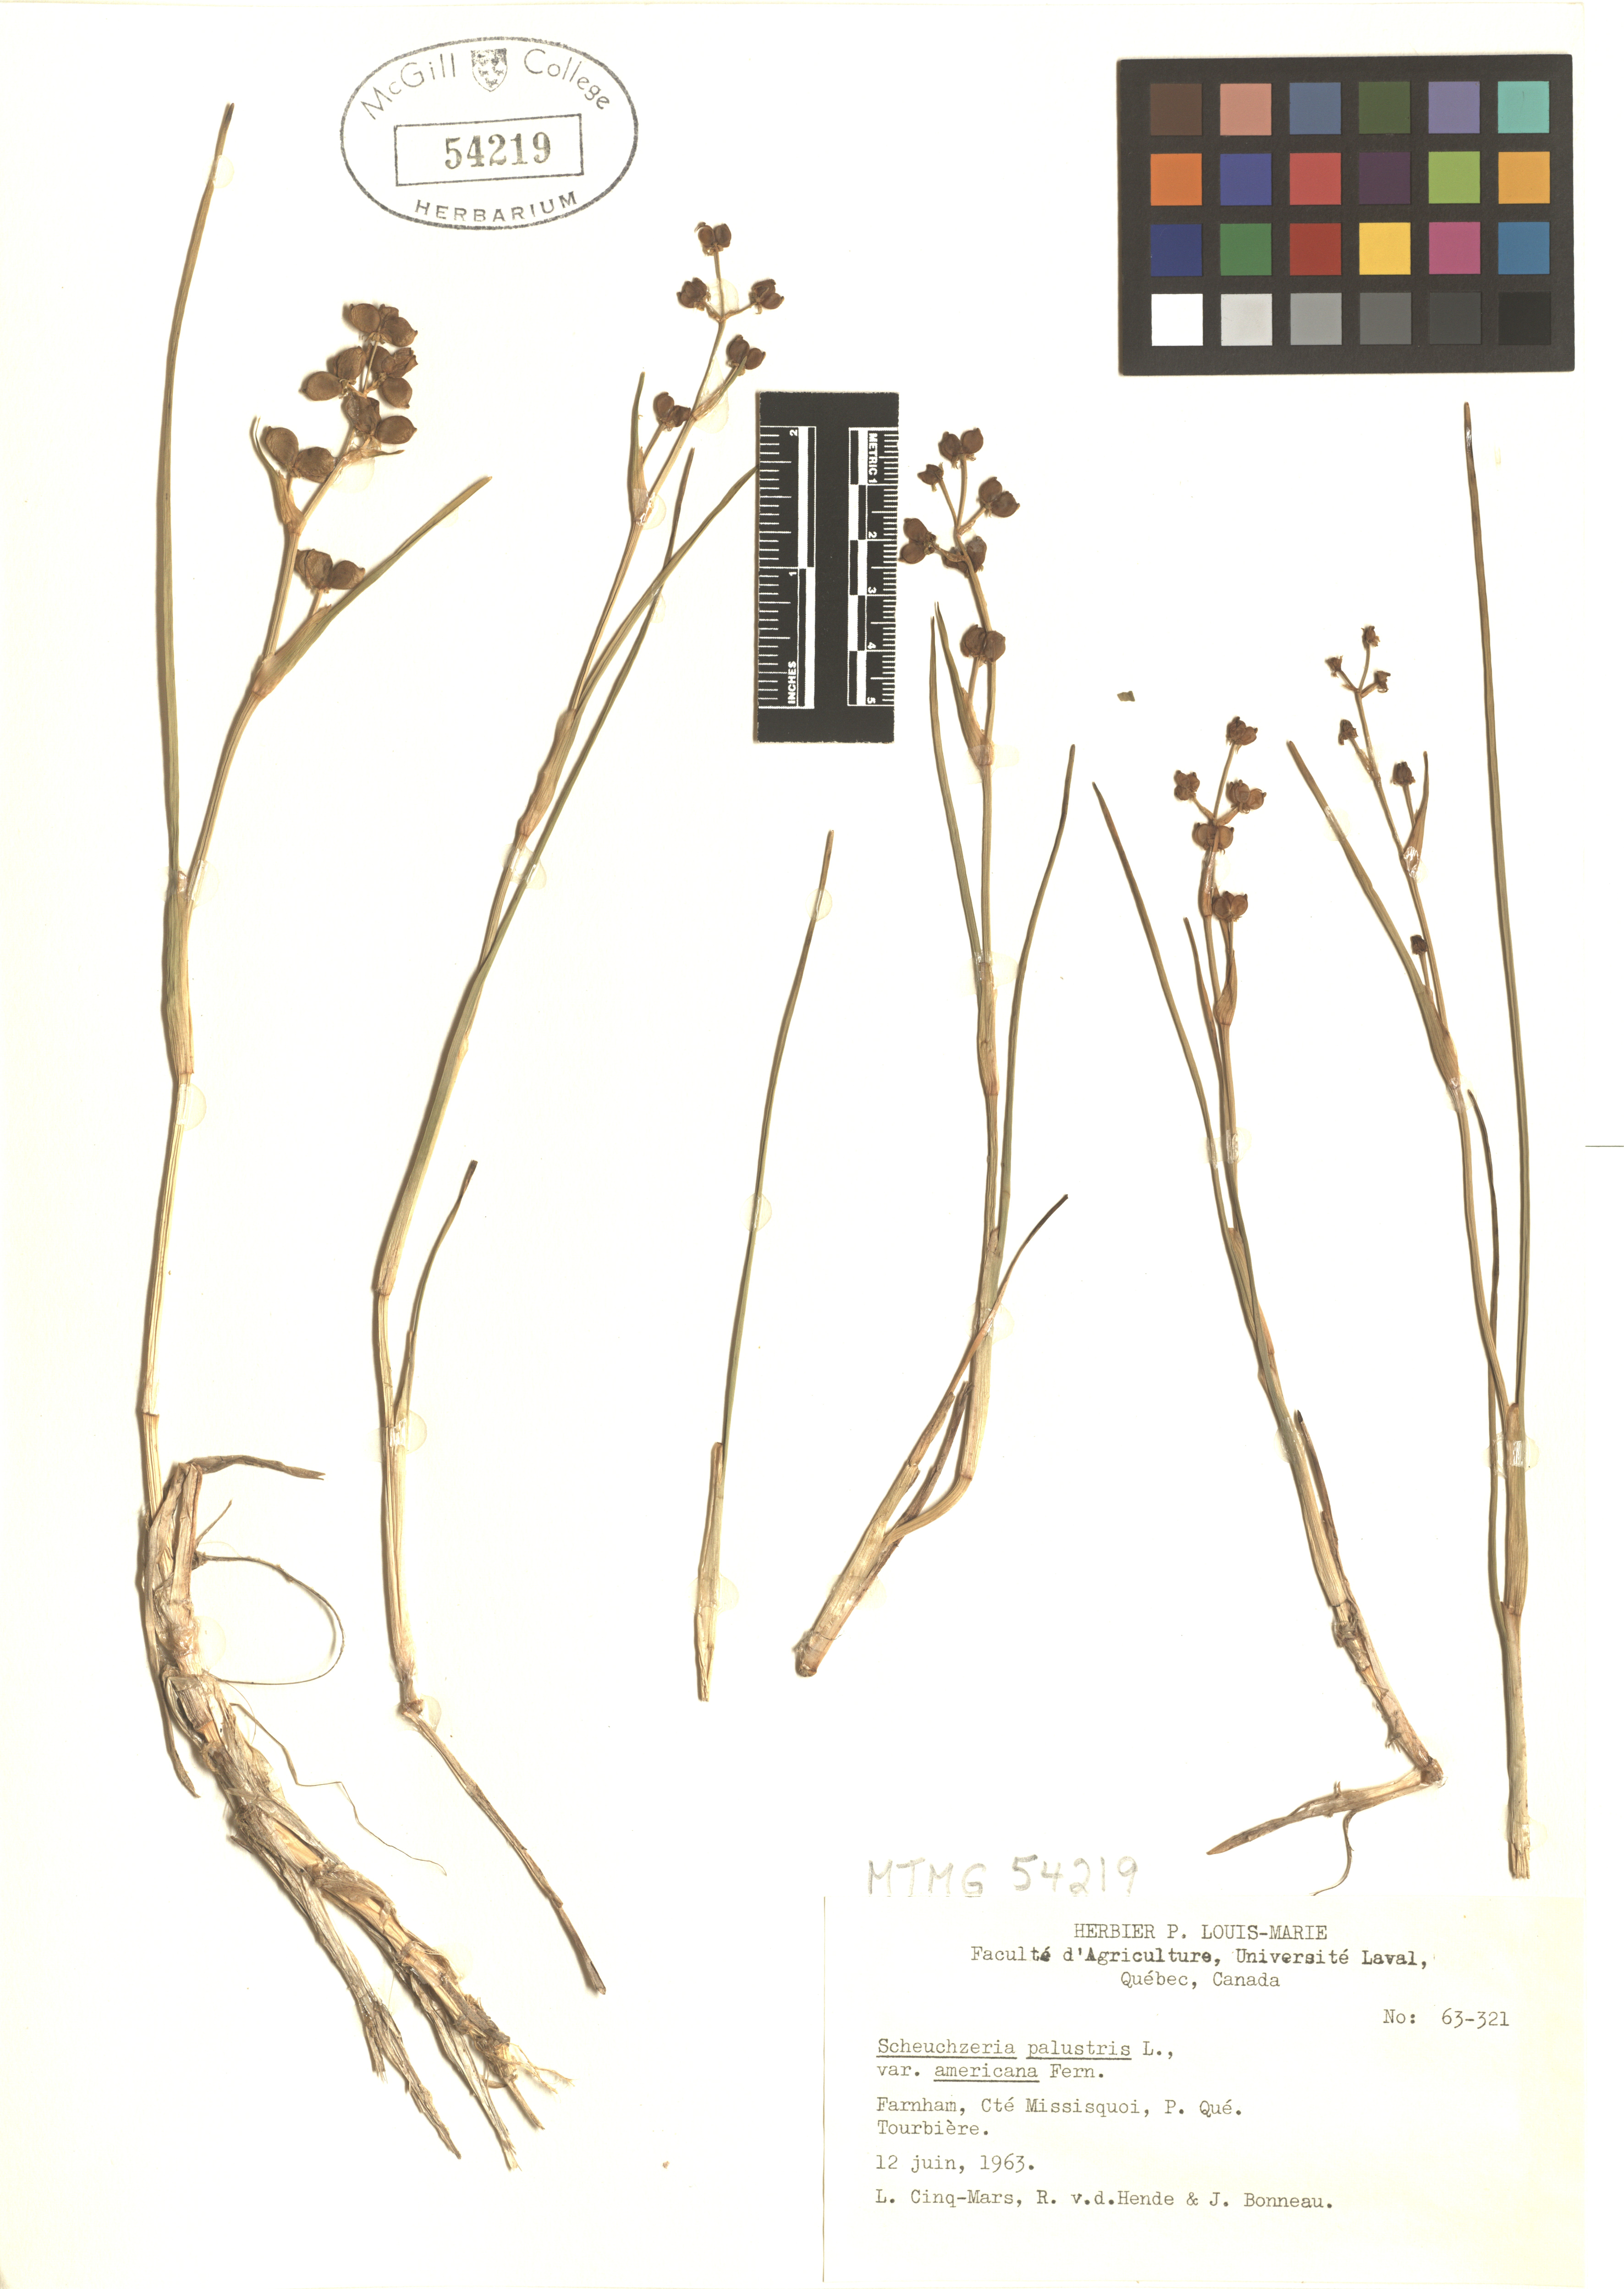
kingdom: Plantae
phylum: Tracheophyta
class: Liliopsida
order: Alismatales
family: Scheuchzeriaceae
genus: Scheuchzeria
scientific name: Scheuchzeria palustris
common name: Rannoch-rush
